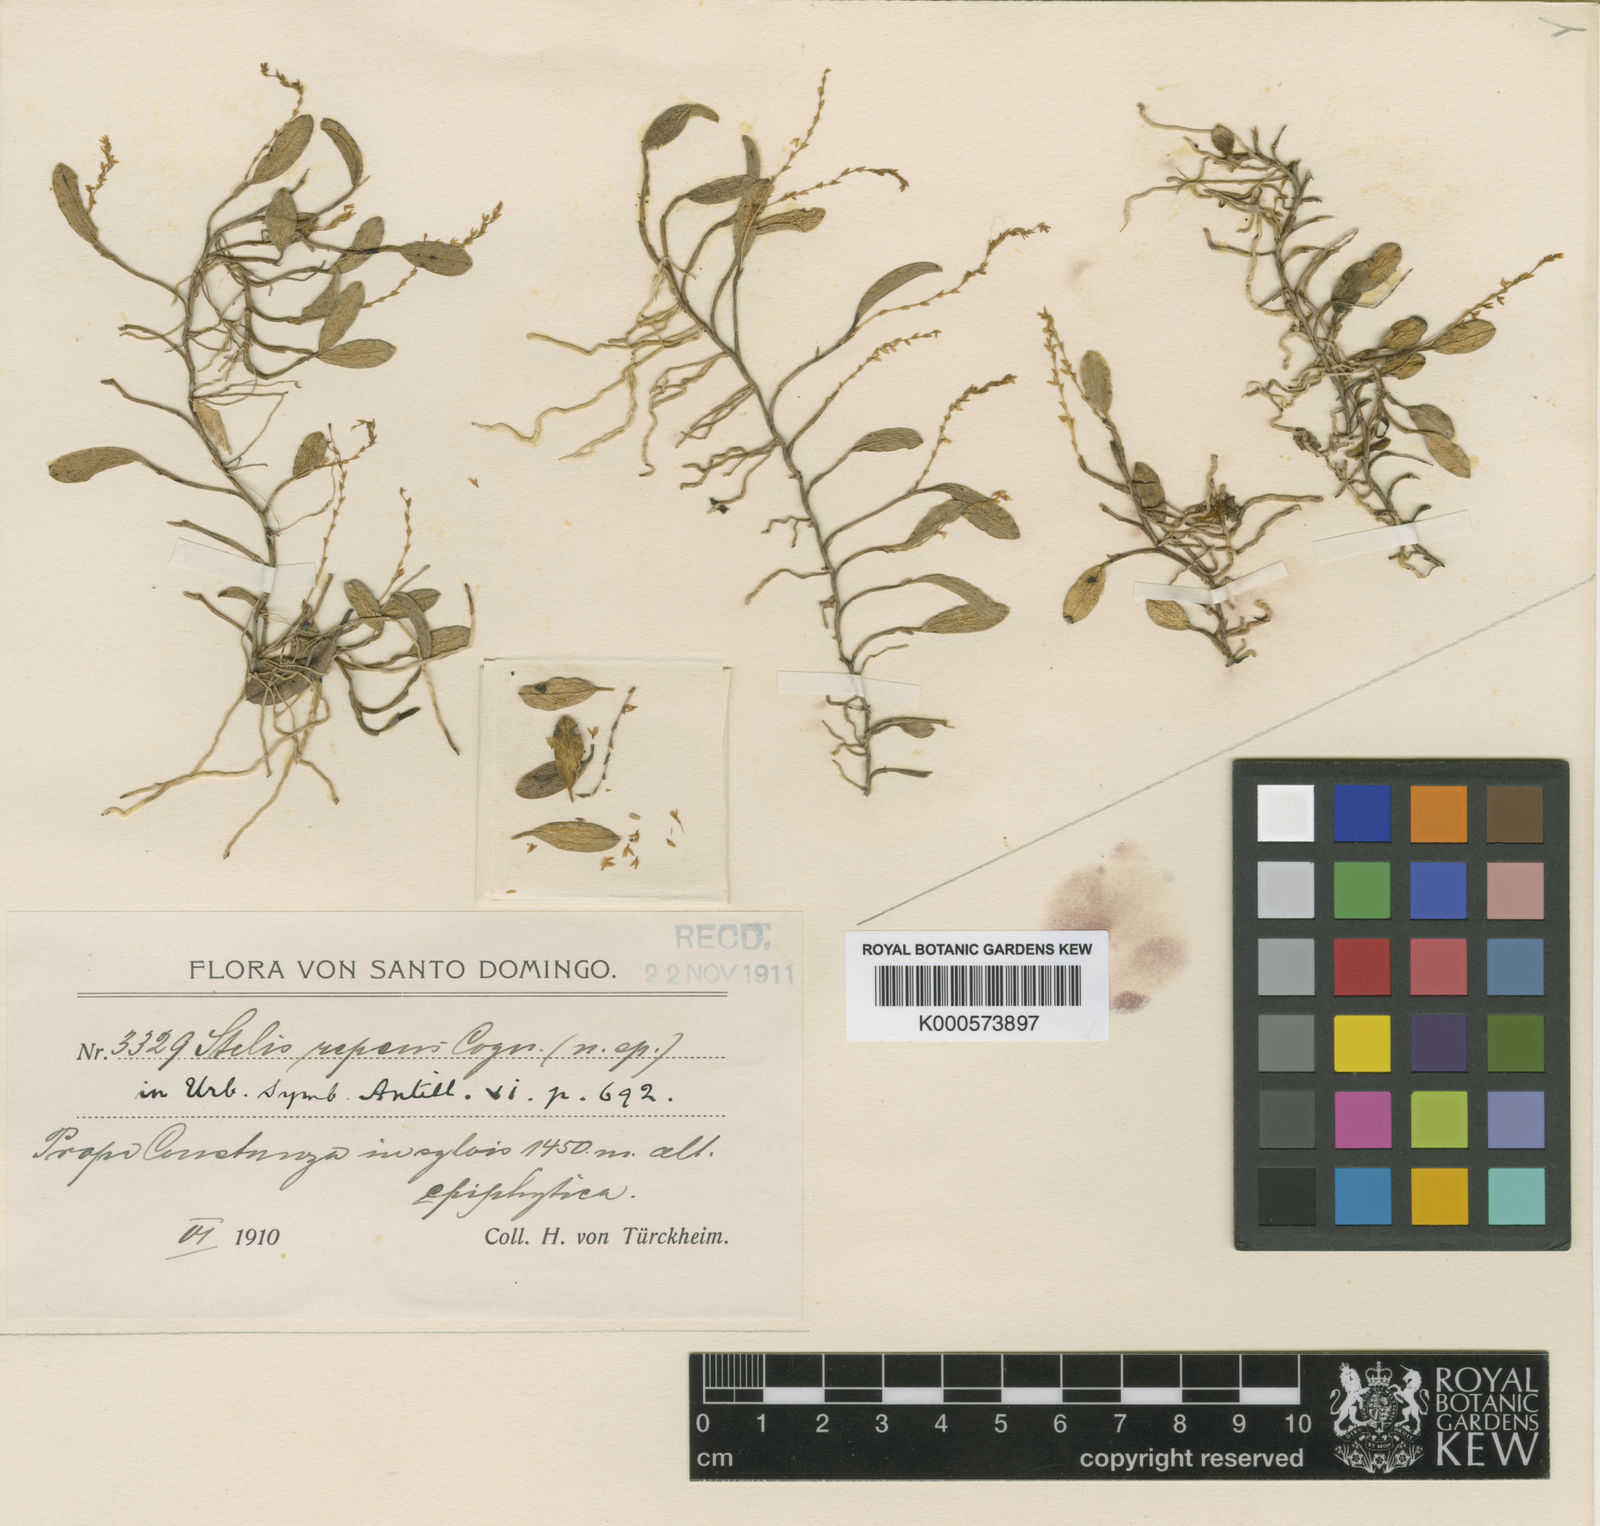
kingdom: Plantae
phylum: Tracheophyta
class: Liliopsida
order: Asparagales
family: Orchidaceae
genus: Stelis
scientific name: Stelis repens
